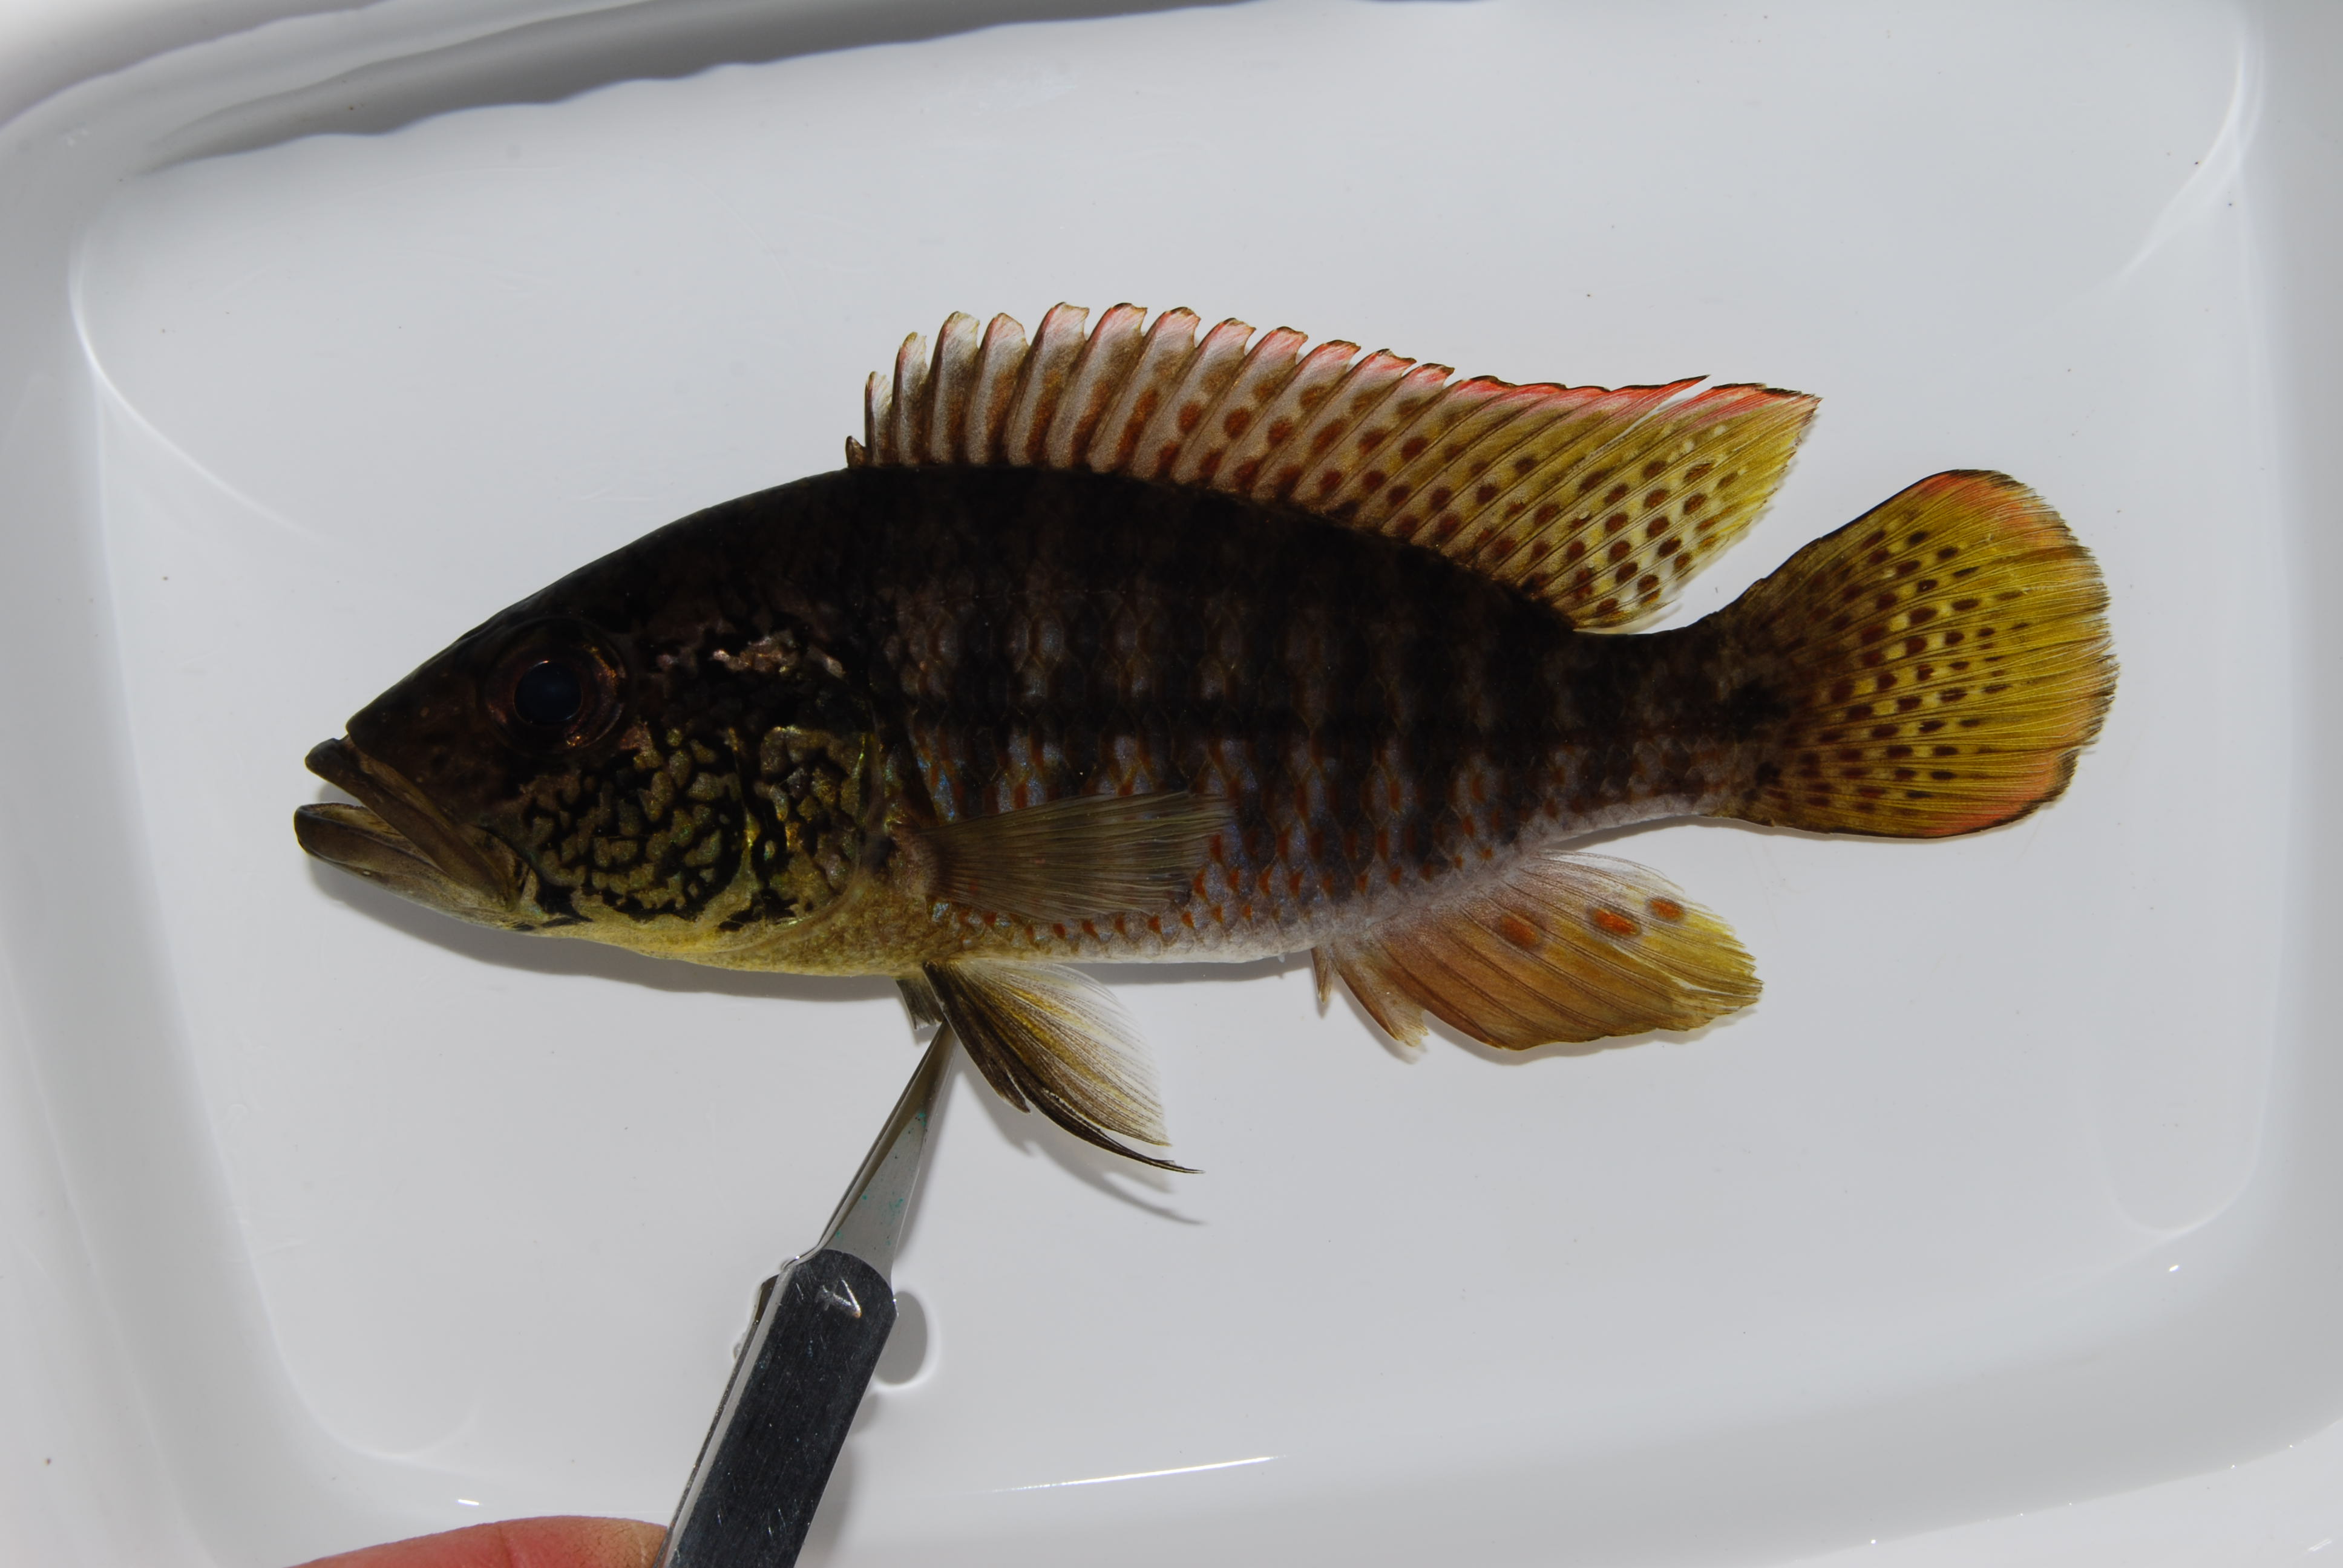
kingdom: Animalia
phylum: Chordata
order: Perciformes
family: Cichlidae
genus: Sargochromis
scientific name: Sargochromis
